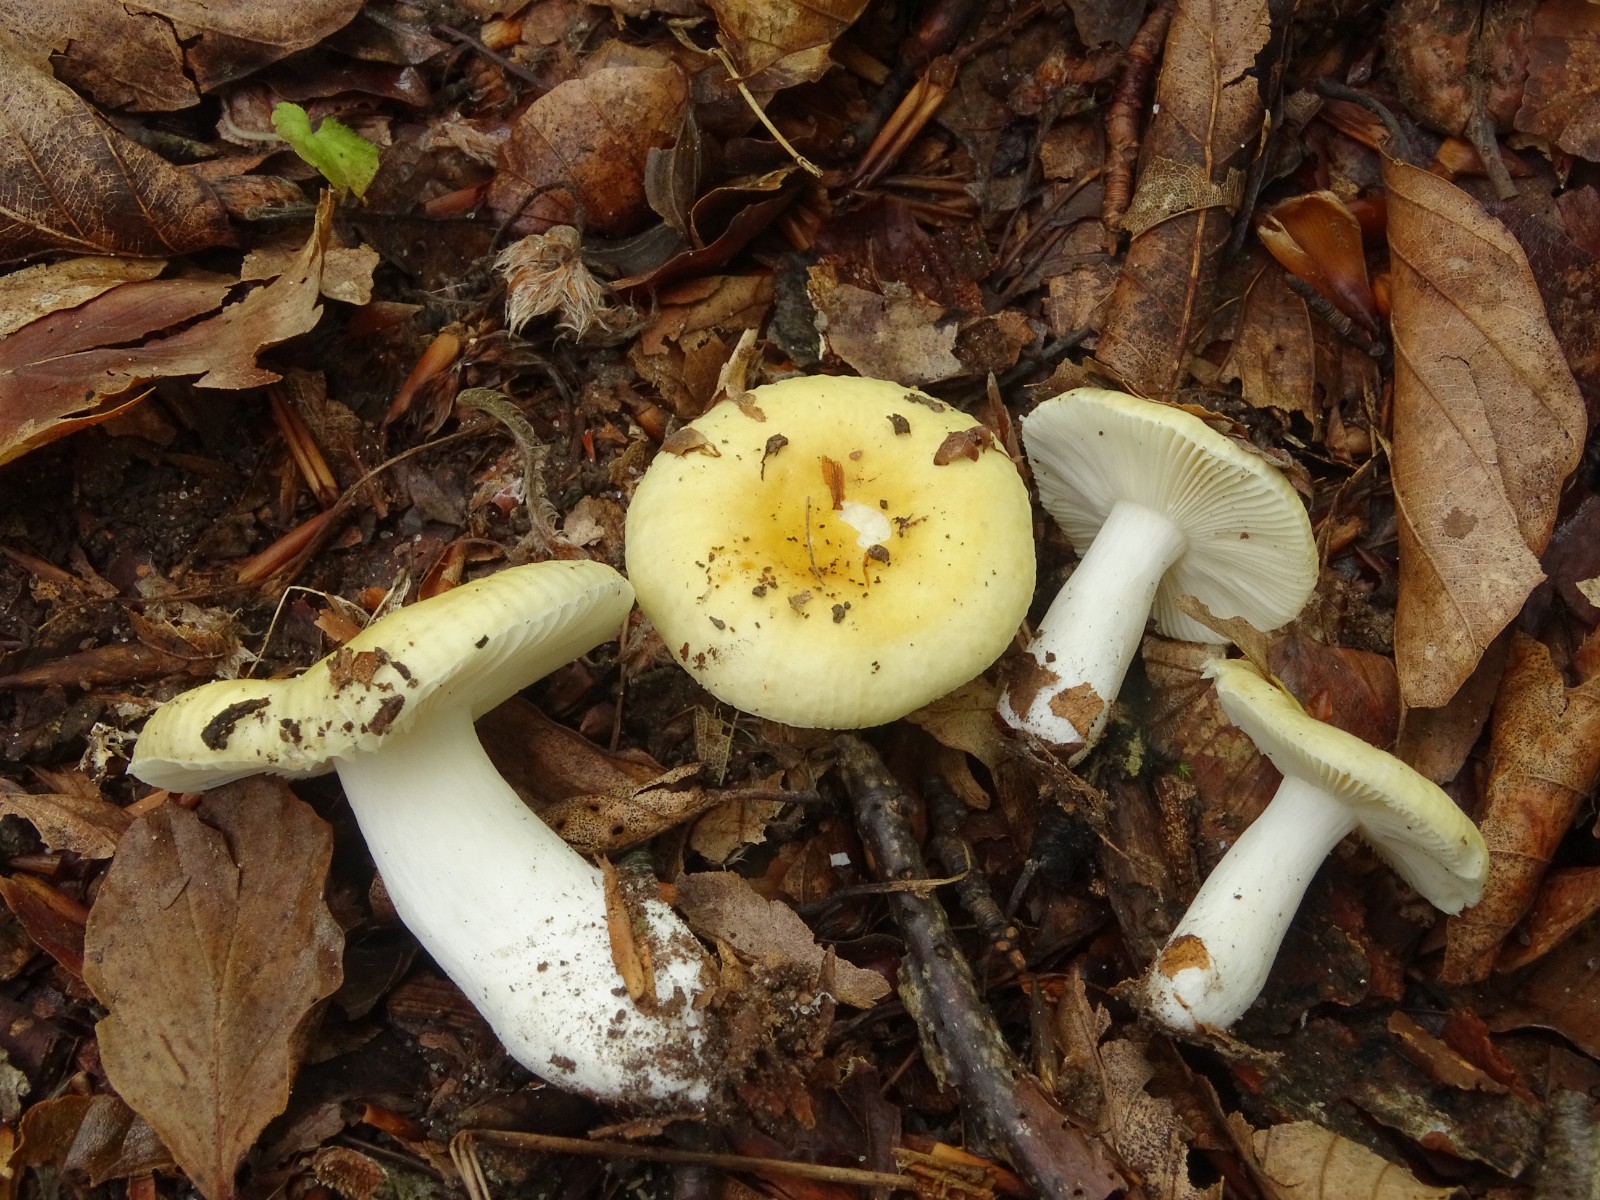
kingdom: Fungi
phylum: Basidiomycota
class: Agaricomycetes
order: Russulales
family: Russulaceae
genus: Russula
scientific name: Russula solaris
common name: sol-skørhat
